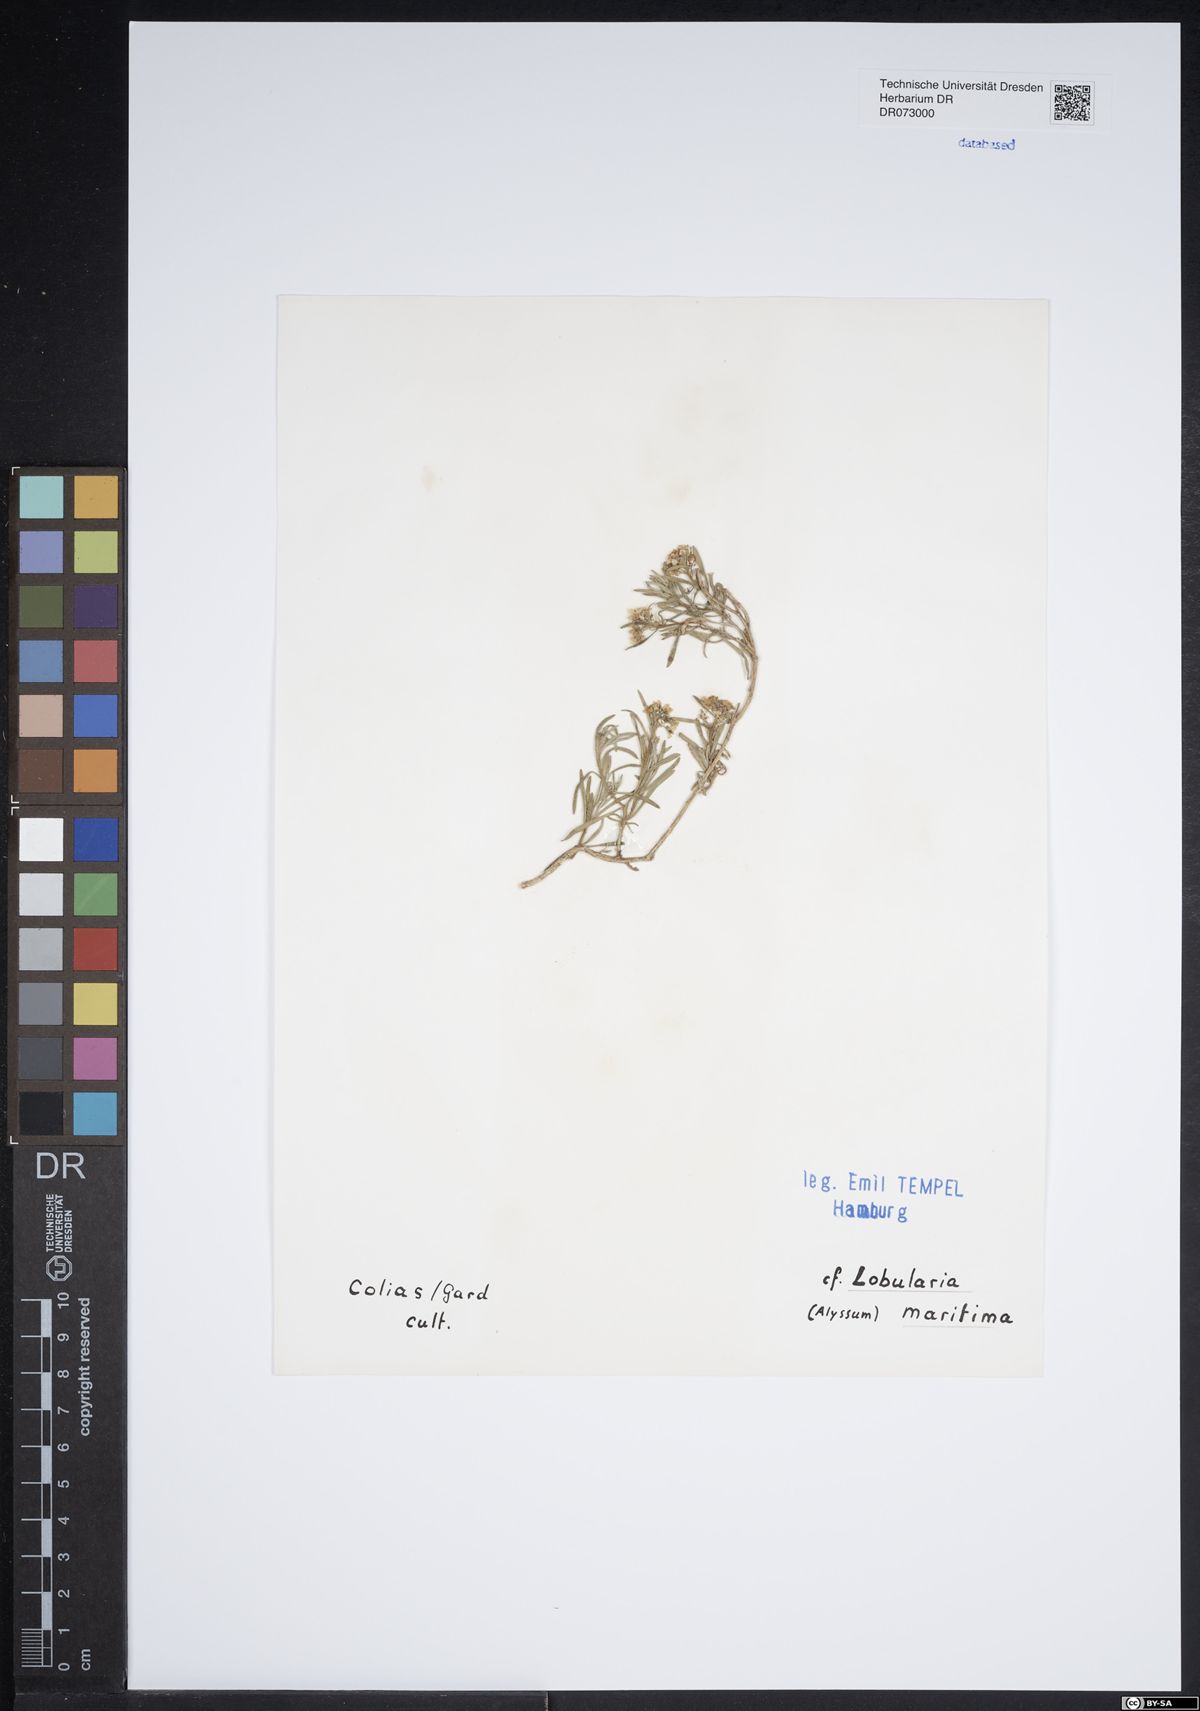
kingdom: Plantae
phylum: Tracheophyta
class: Magnoliopsida
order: Brassicales
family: Brassicaceae
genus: Lobularia
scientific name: Lobularia maritima
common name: Sweet alison
